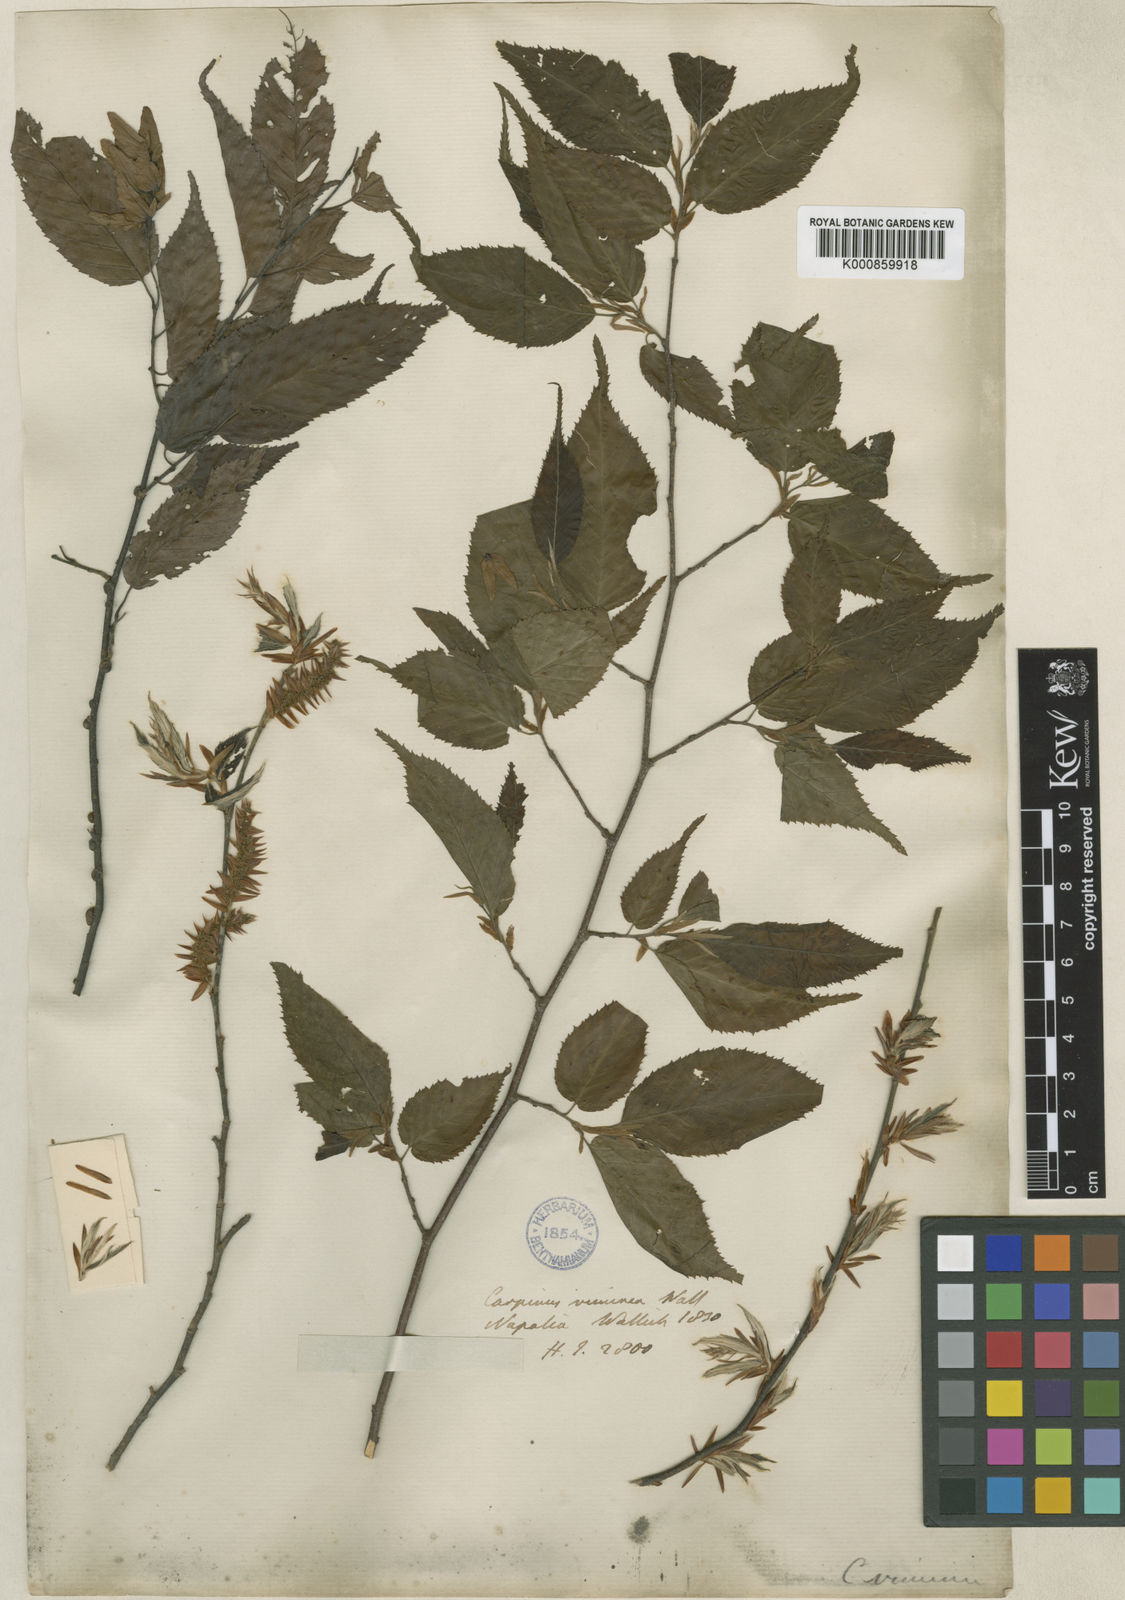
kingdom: Plantae
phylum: Tracheophyta
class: Magnoliopsida
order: Fagales
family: Betulaceae
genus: Carpinus
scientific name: Carpinus
